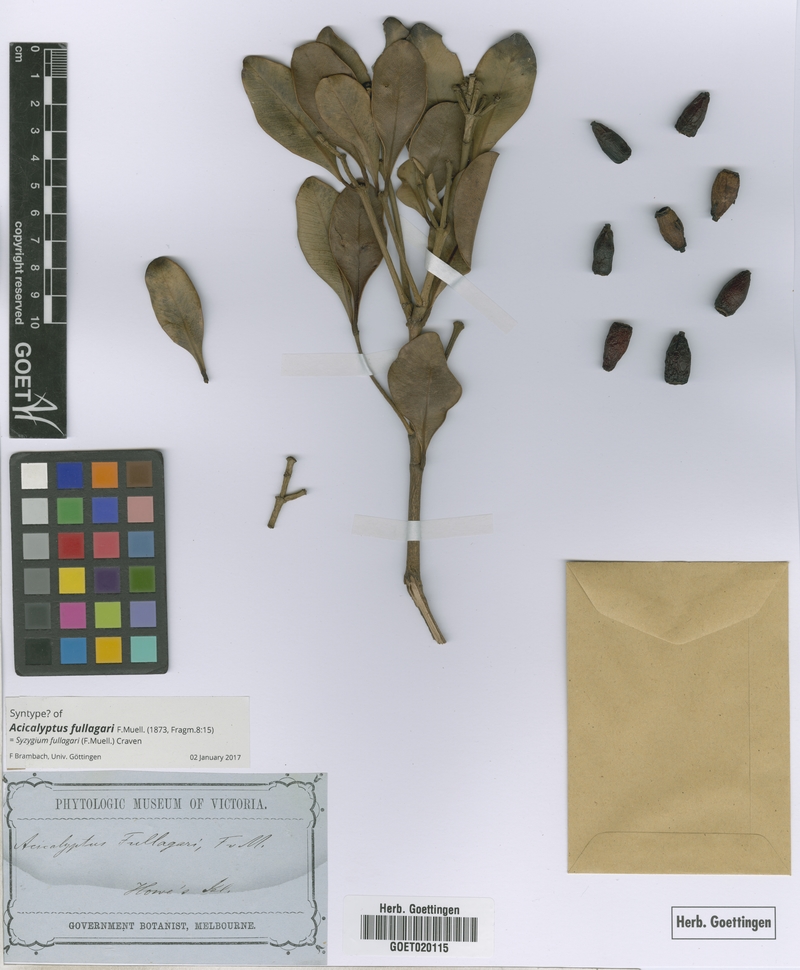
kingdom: Plantae
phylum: Tracheophyta
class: Magnoliopsida
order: Myrtales
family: Myrtaceae
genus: Syzygium
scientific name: Syzygium fullagarii
